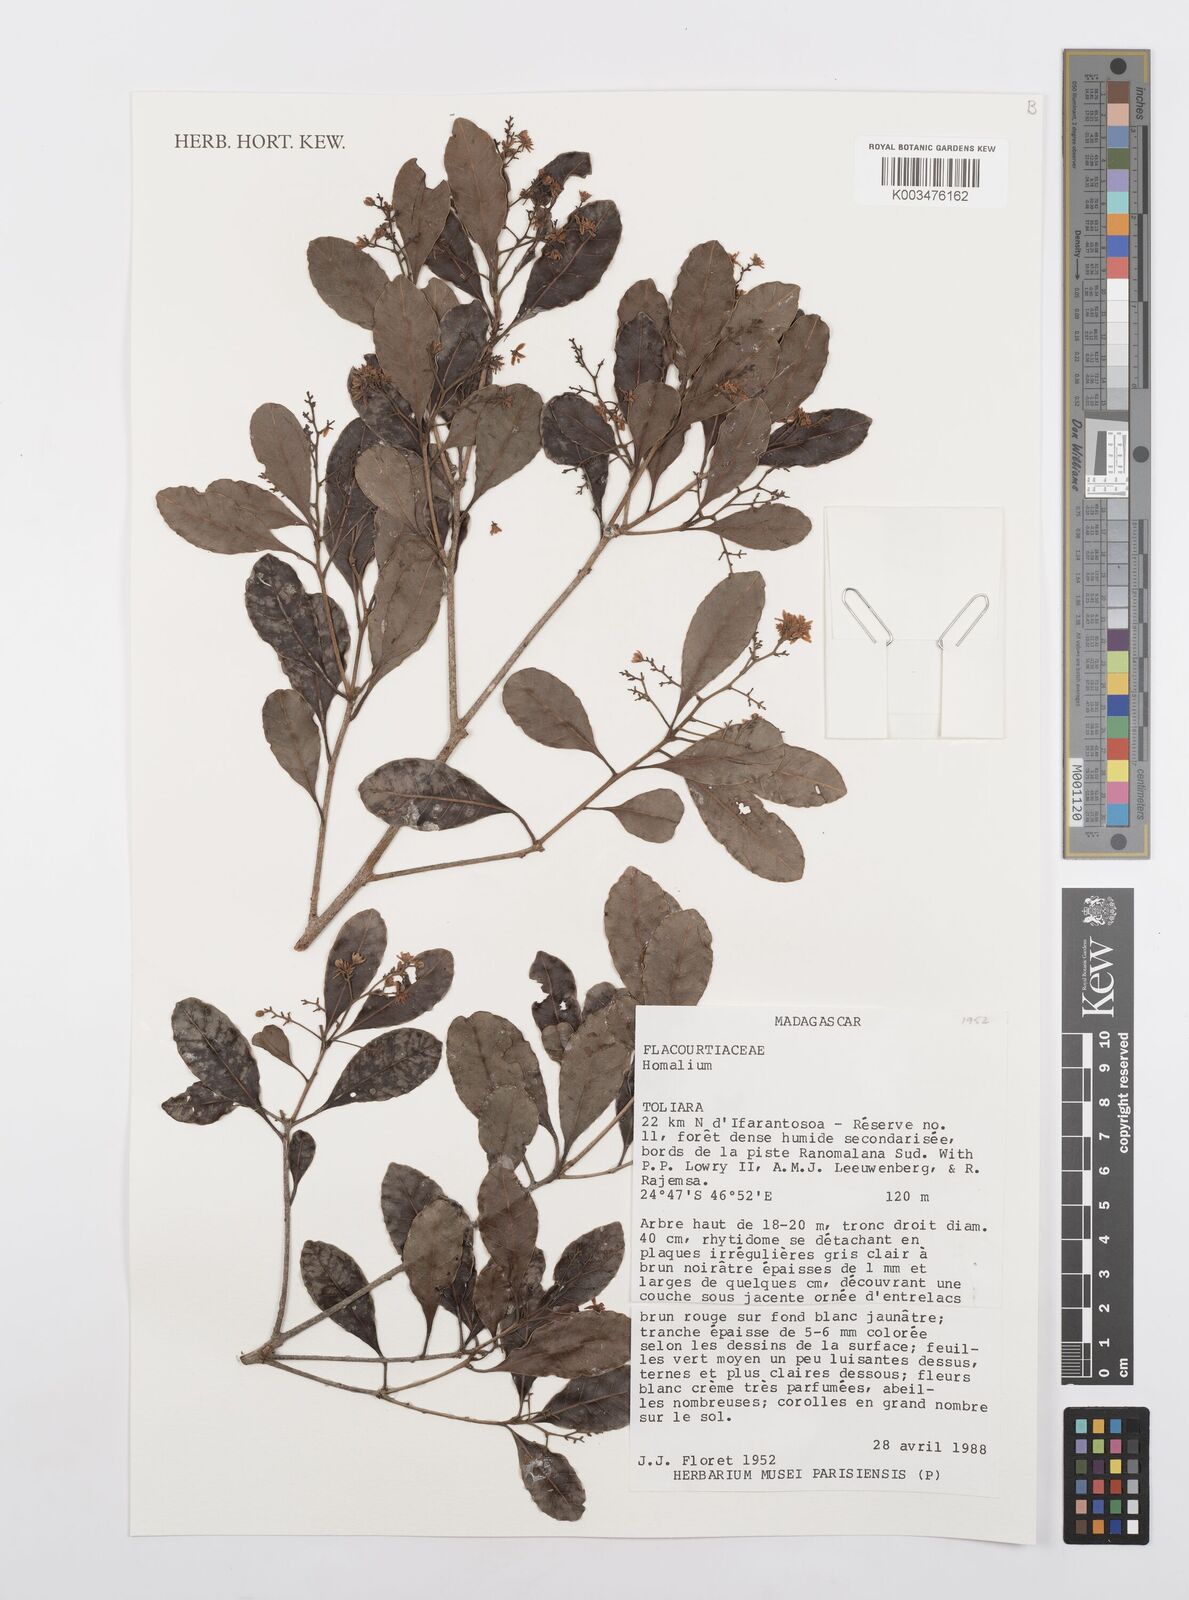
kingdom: Plantae
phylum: Tracheophyta
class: Magnoliopsida
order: Malpighiales
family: Salicaceae
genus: Homalium
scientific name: Homalium
